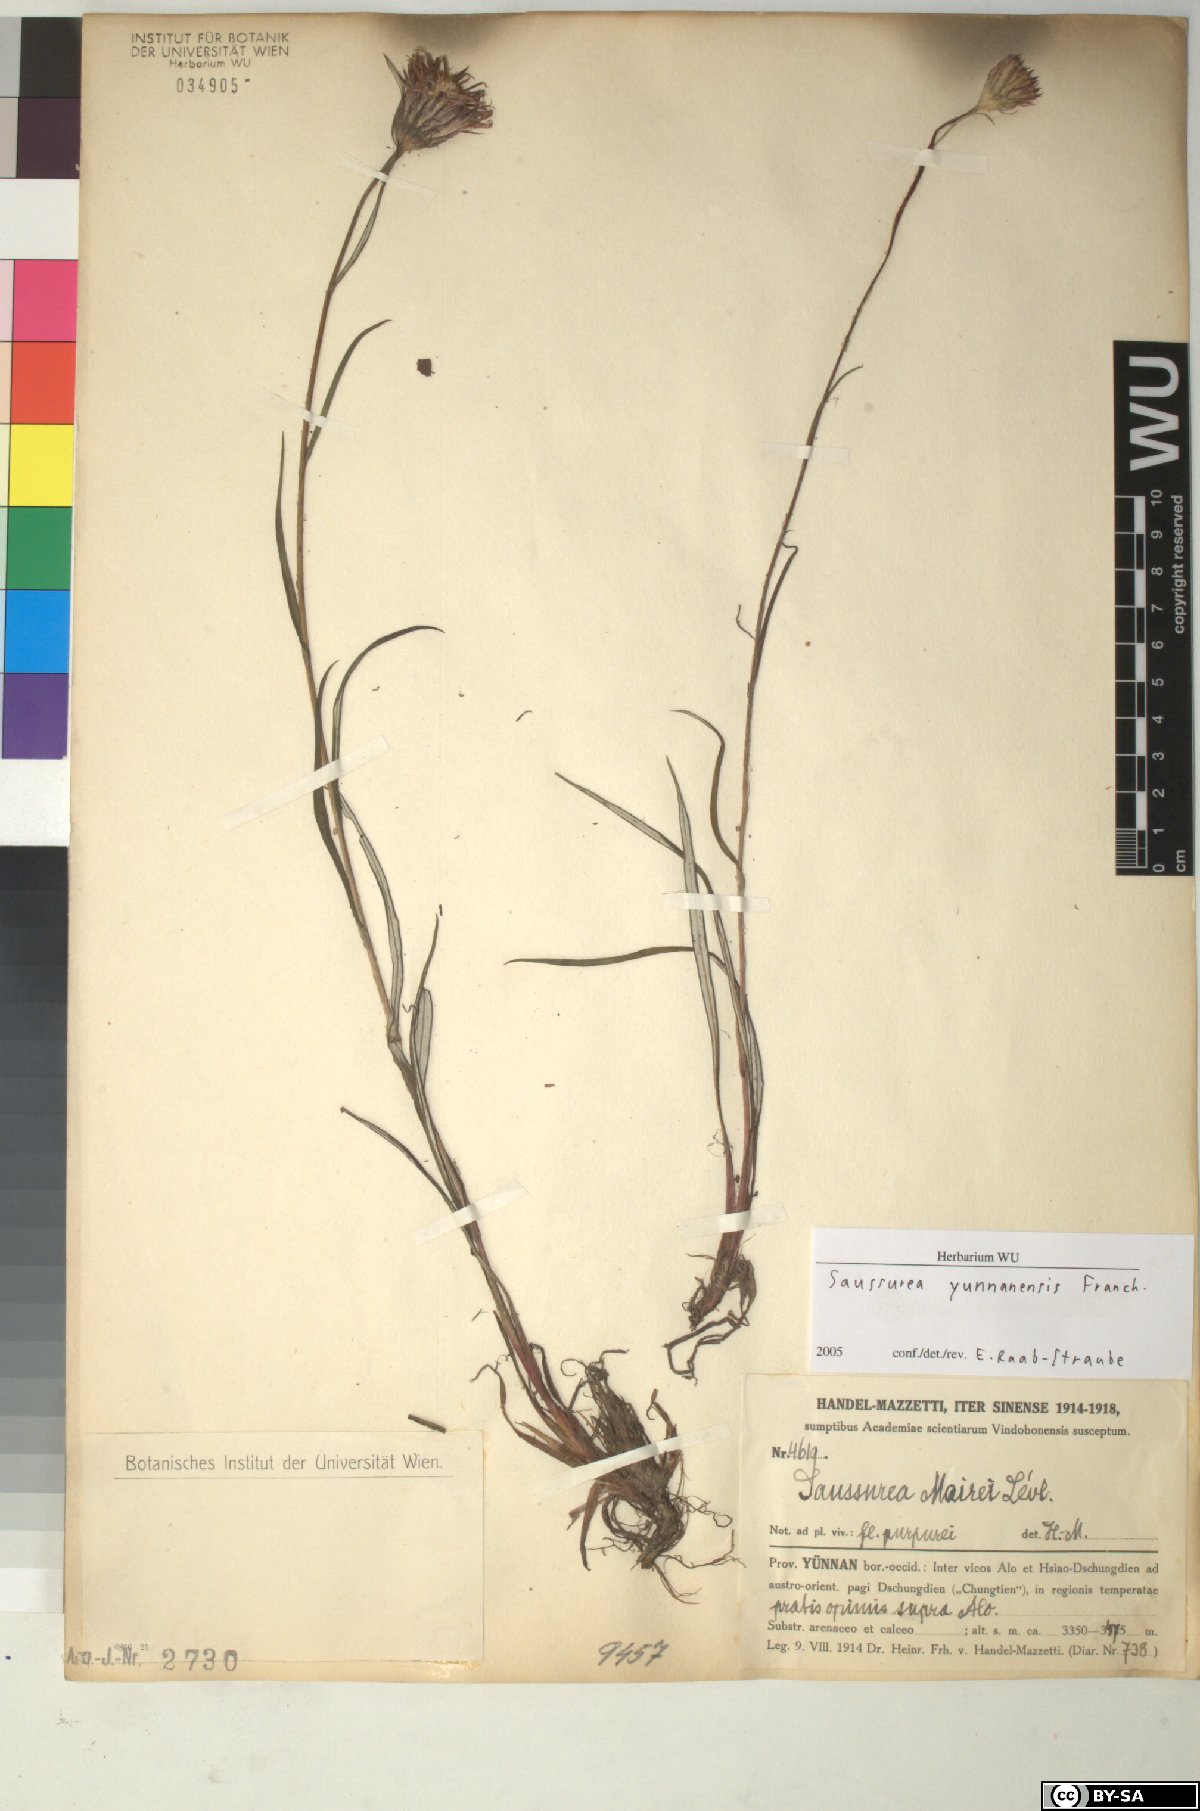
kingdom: Plantae
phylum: Tracheophyta
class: Magnoliopsida
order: Asterales
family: Asteraceae
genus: Saussurea
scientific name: Saussurea yunnanensis
